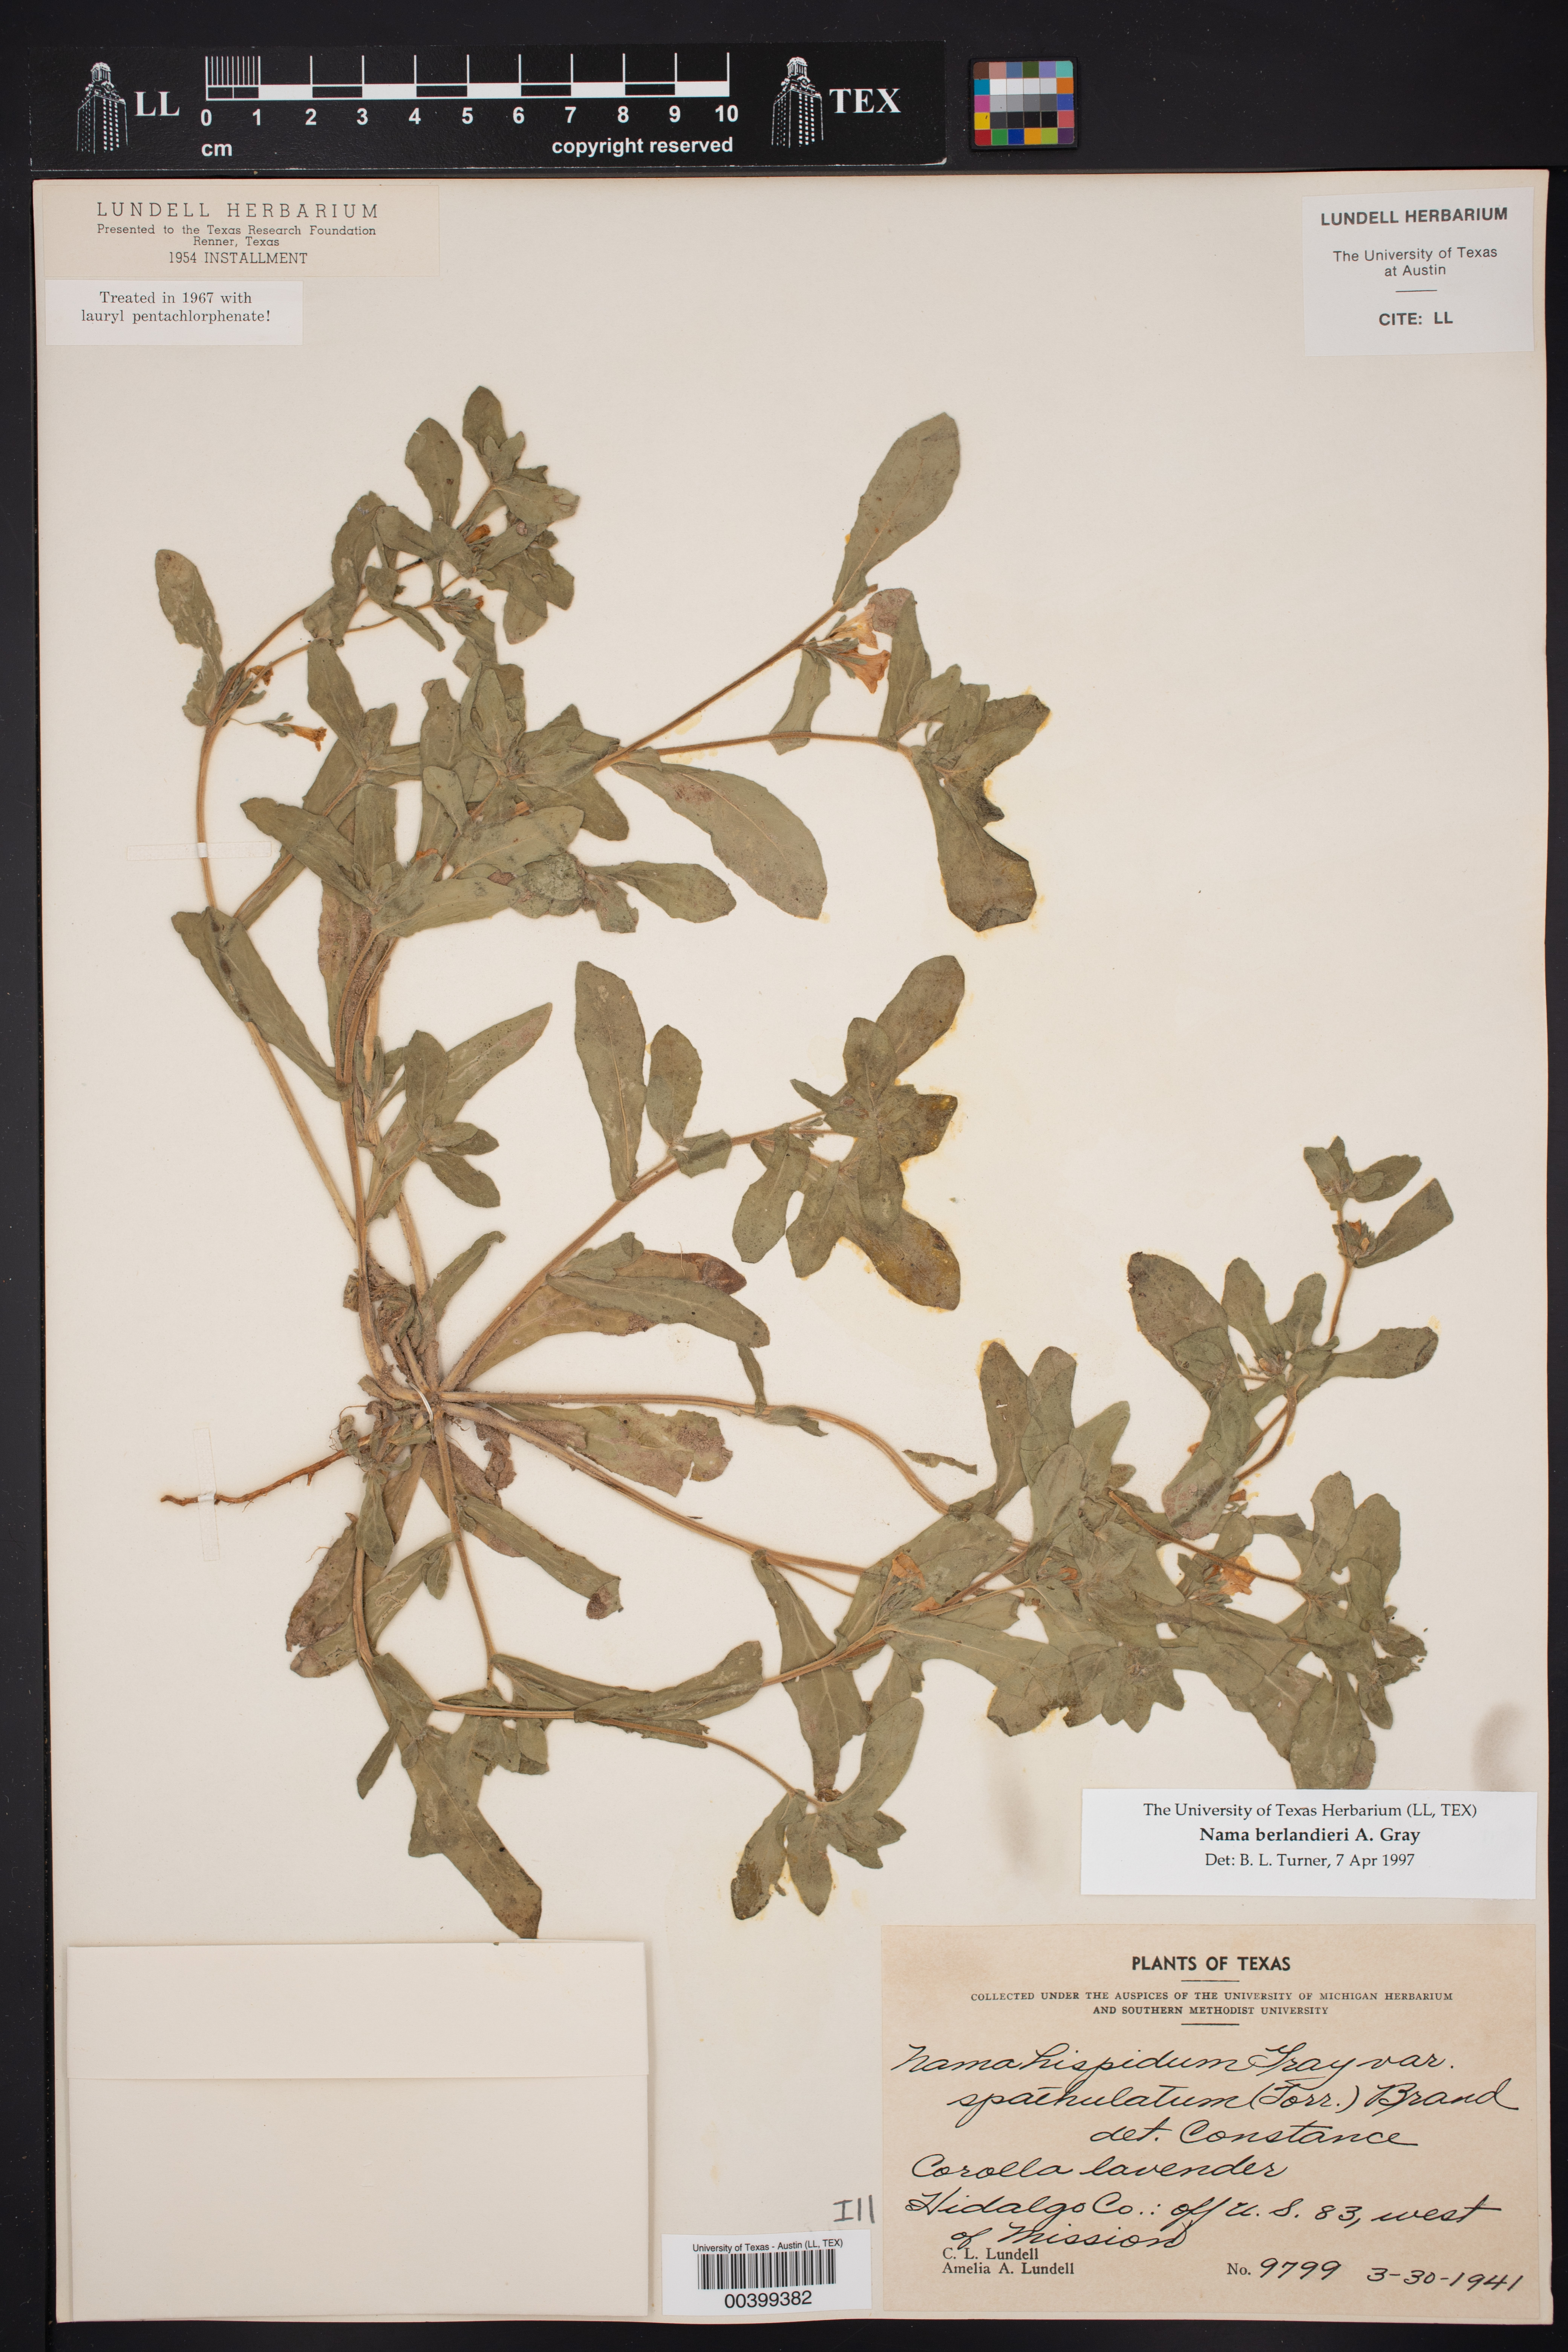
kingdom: Plantae
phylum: Tracheophyta
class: Magnoliopsida
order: Boraginales
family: Namaceae
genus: Nama
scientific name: Nama undulata
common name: Whitewhisker fiddleleaf
